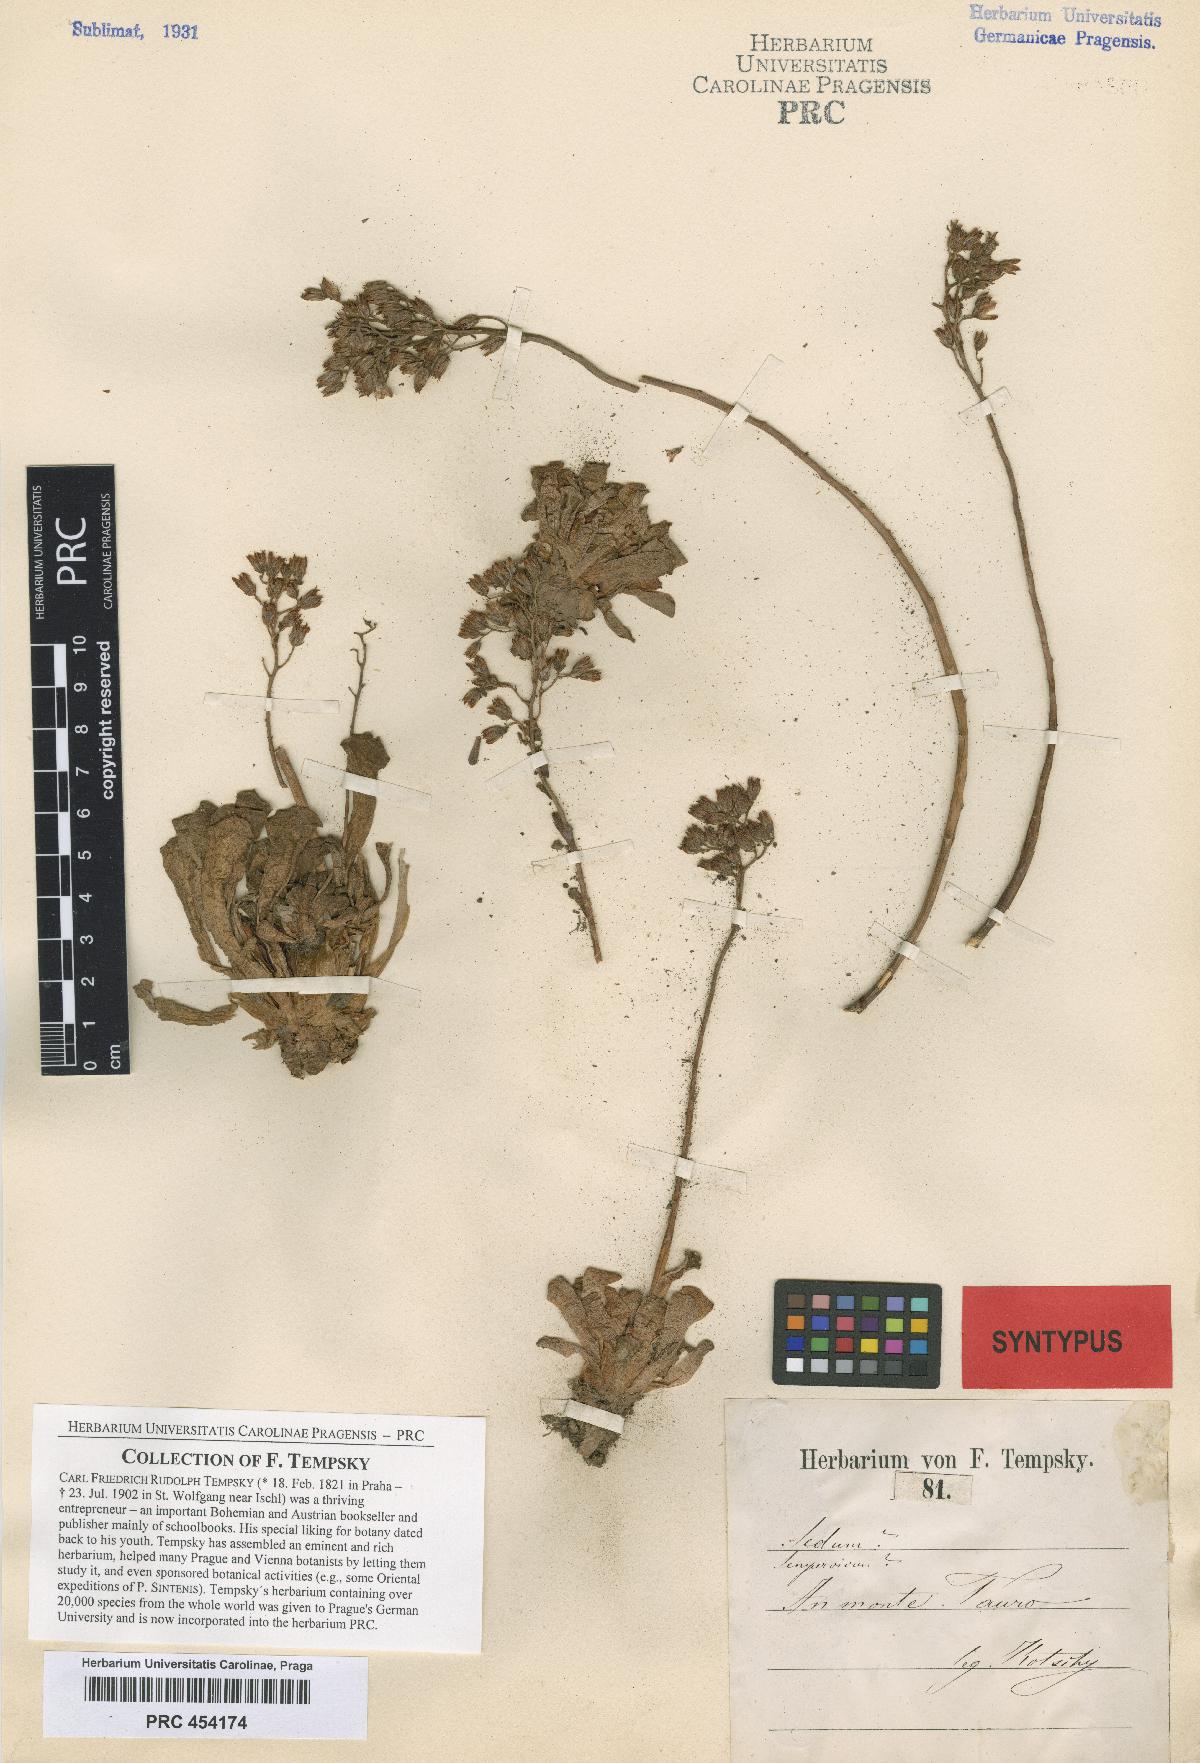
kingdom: Plantae
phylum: Tracheophyta
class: Magnoliopsida
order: Saxifragales
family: Crassulaceae
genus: Rosularia
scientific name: Rosularia sempervivum
